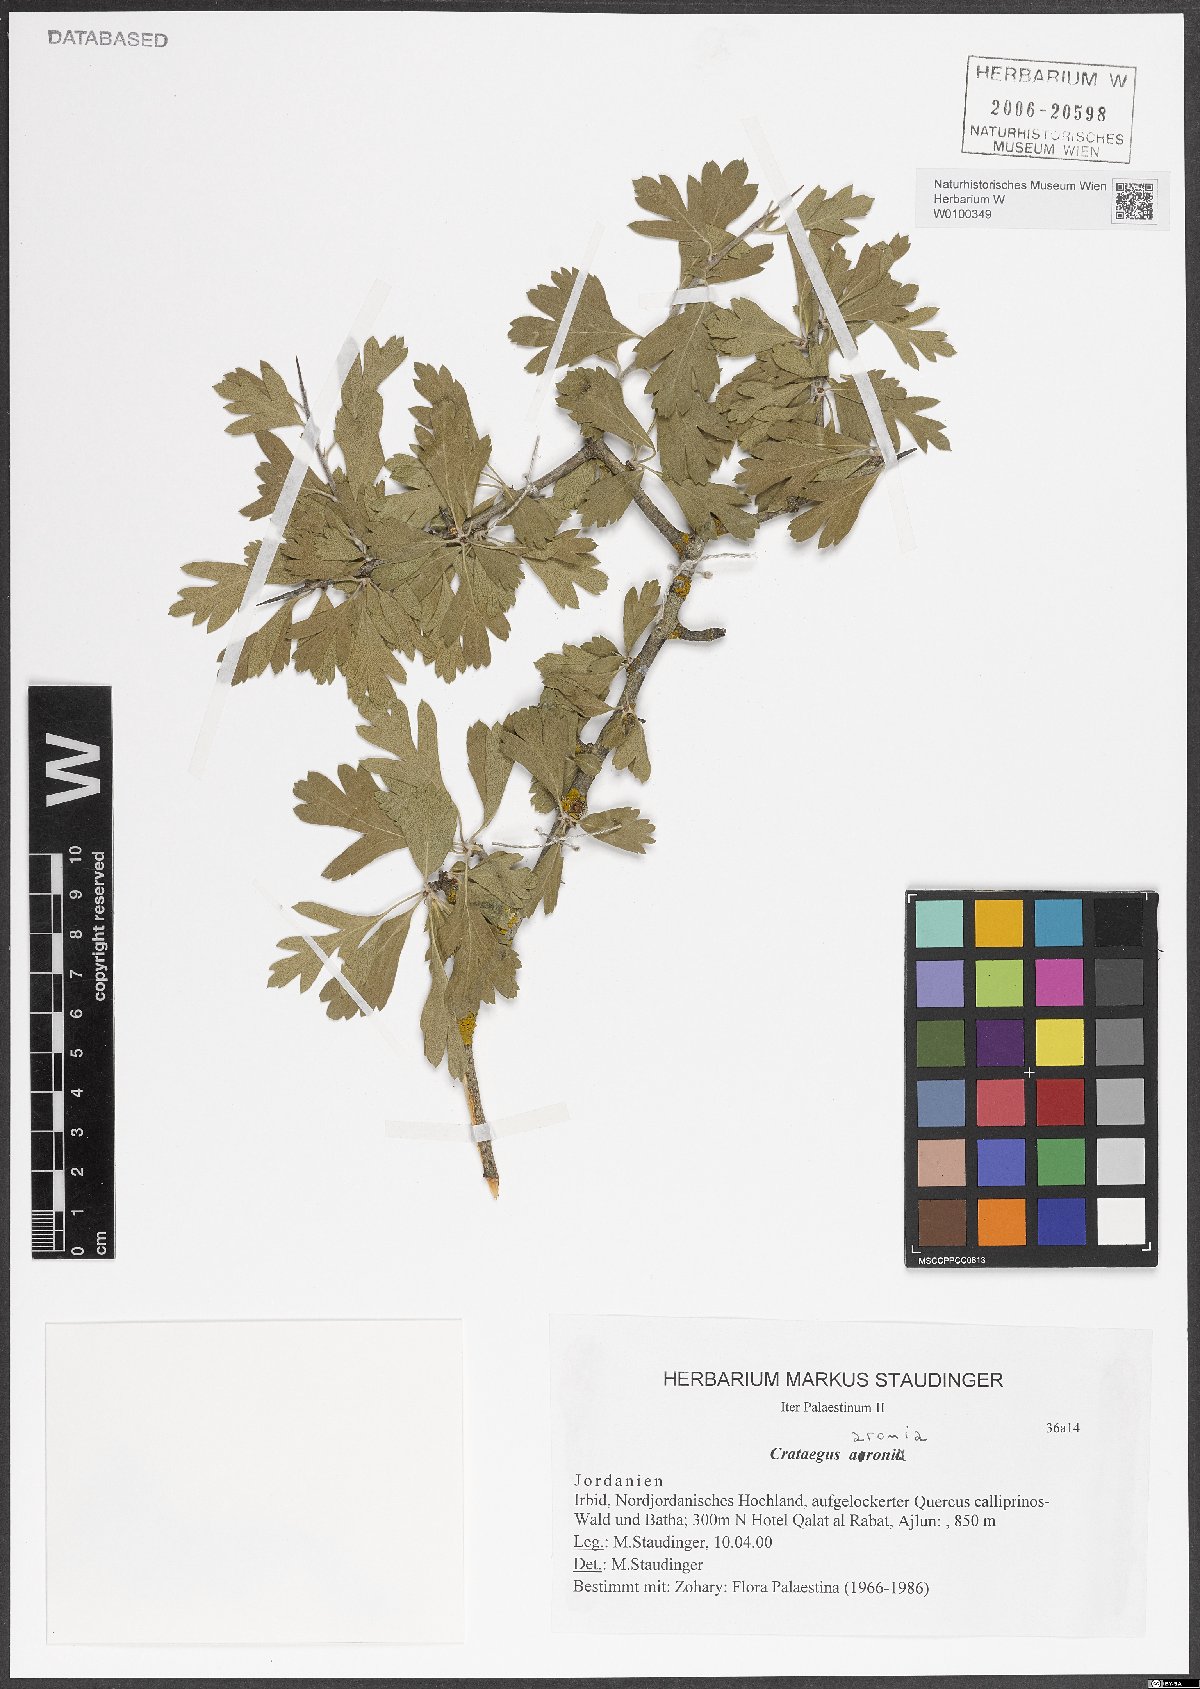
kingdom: Plantae
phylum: Tracheophyta
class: Magnoliopsida
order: Rosales
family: Rosaceae
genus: Crataegus
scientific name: Crataegus azarolus
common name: Azarole
